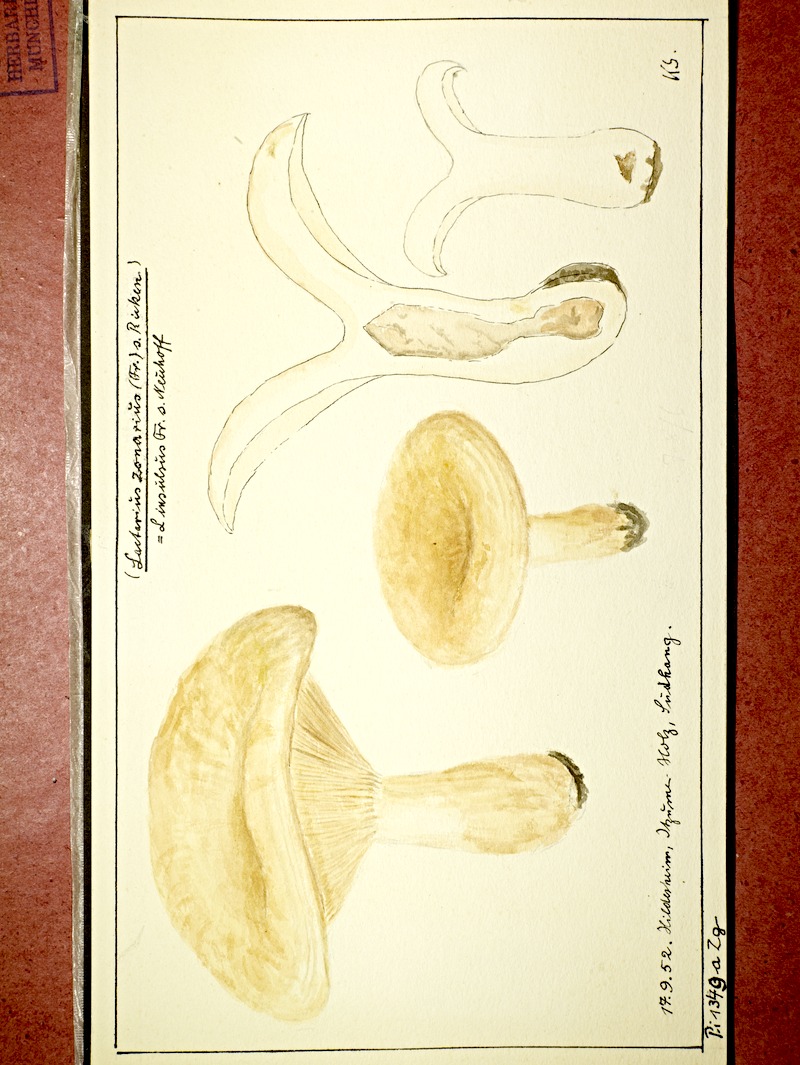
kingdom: Fungi
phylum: Basidiomycota
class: Agaricomycetes
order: Russulales
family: Russulaceae
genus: Lactarius
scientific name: Lactarius zonarius
